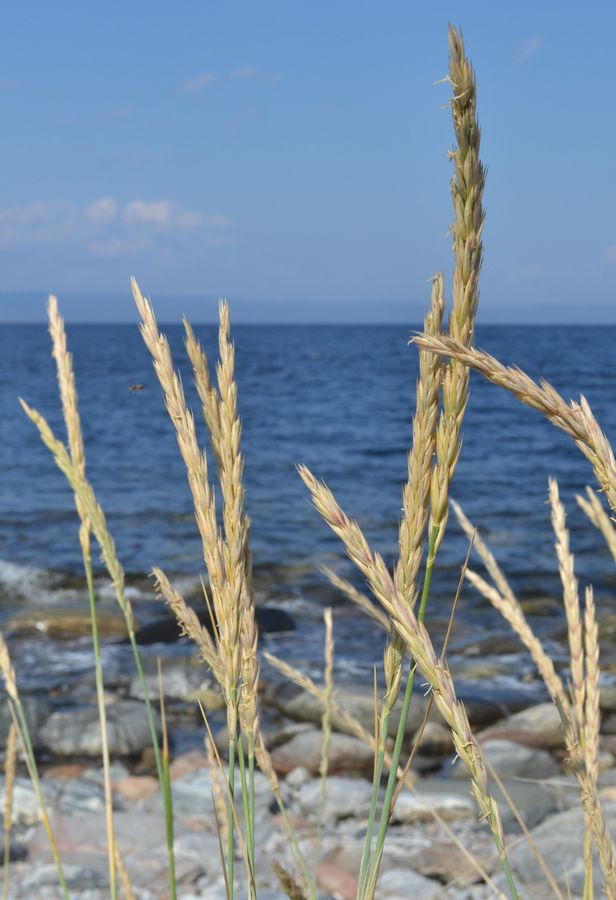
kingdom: Plantae
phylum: Tracheophyta
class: Liliopsida
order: Poales
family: Poaceae
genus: Leymus
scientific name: Leymus arenarius
